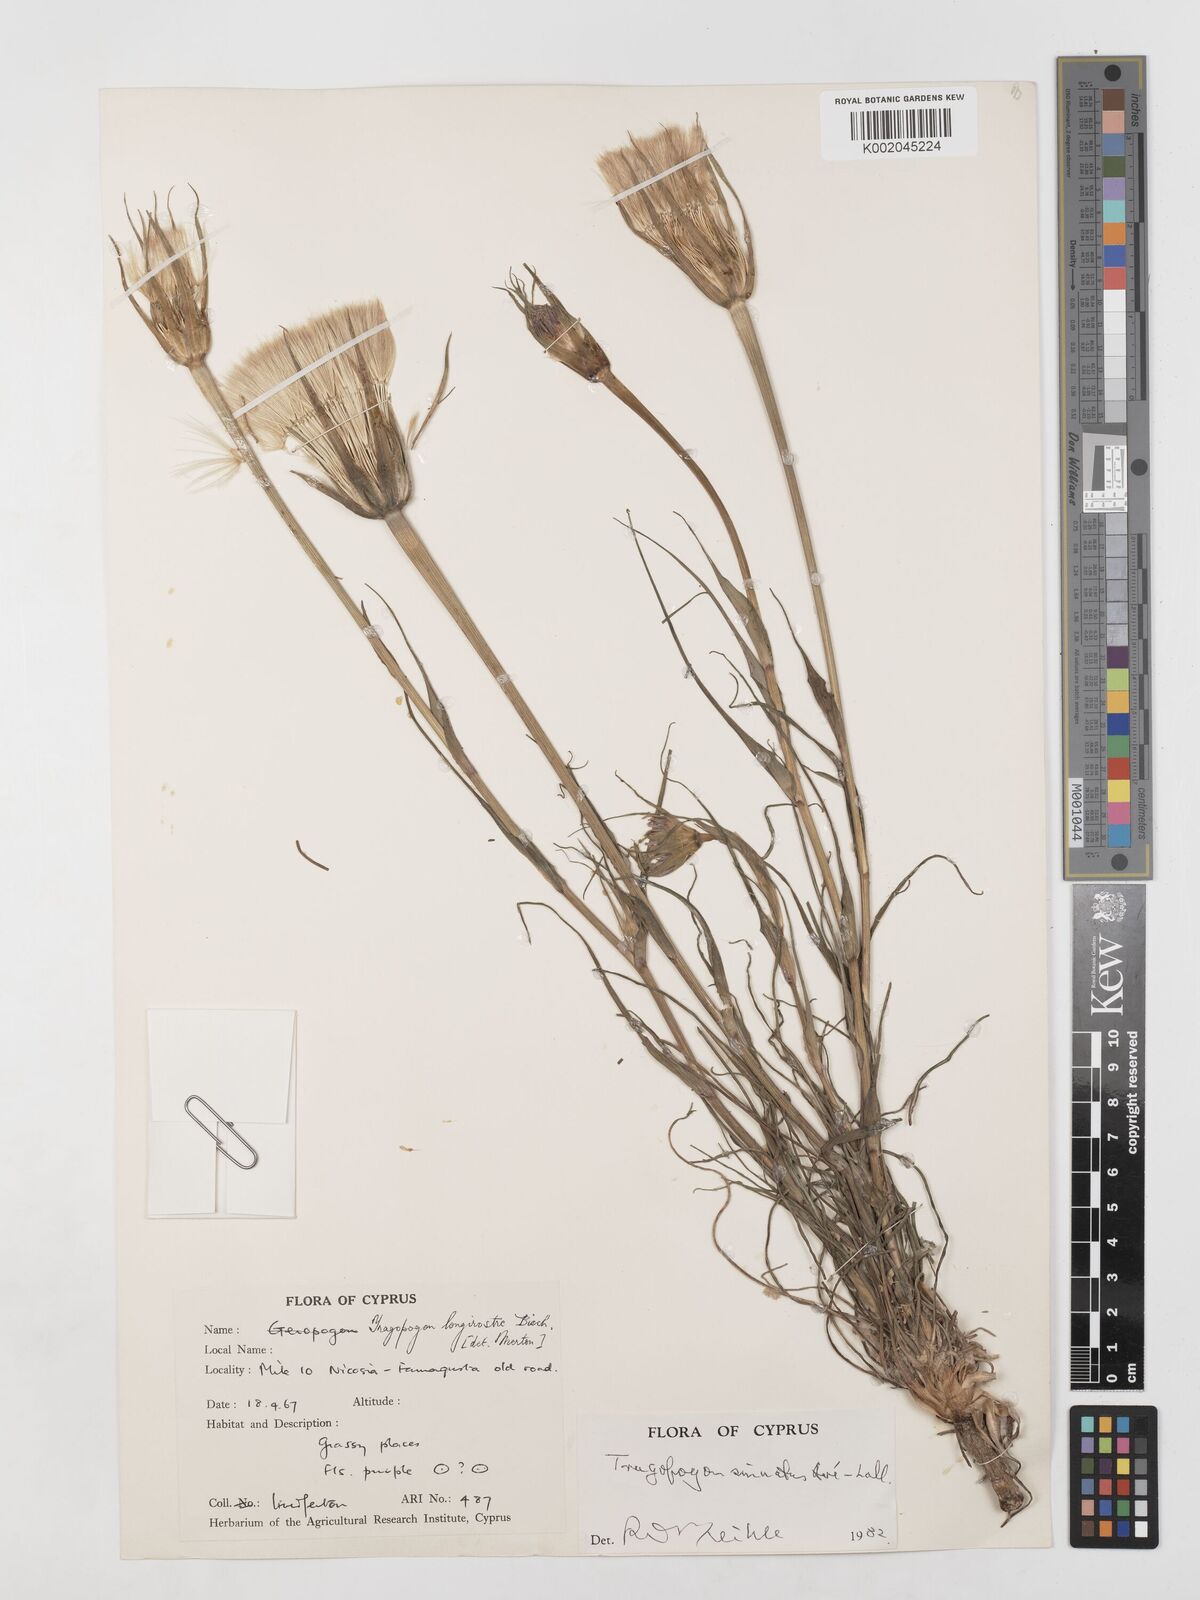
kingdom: Plantae
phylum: Tracheophyta
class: Magnoliopsida
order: Asterales
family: Asteraceae
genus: Tragopogon
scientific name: Tragopogon porrifolius
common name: Salsify
